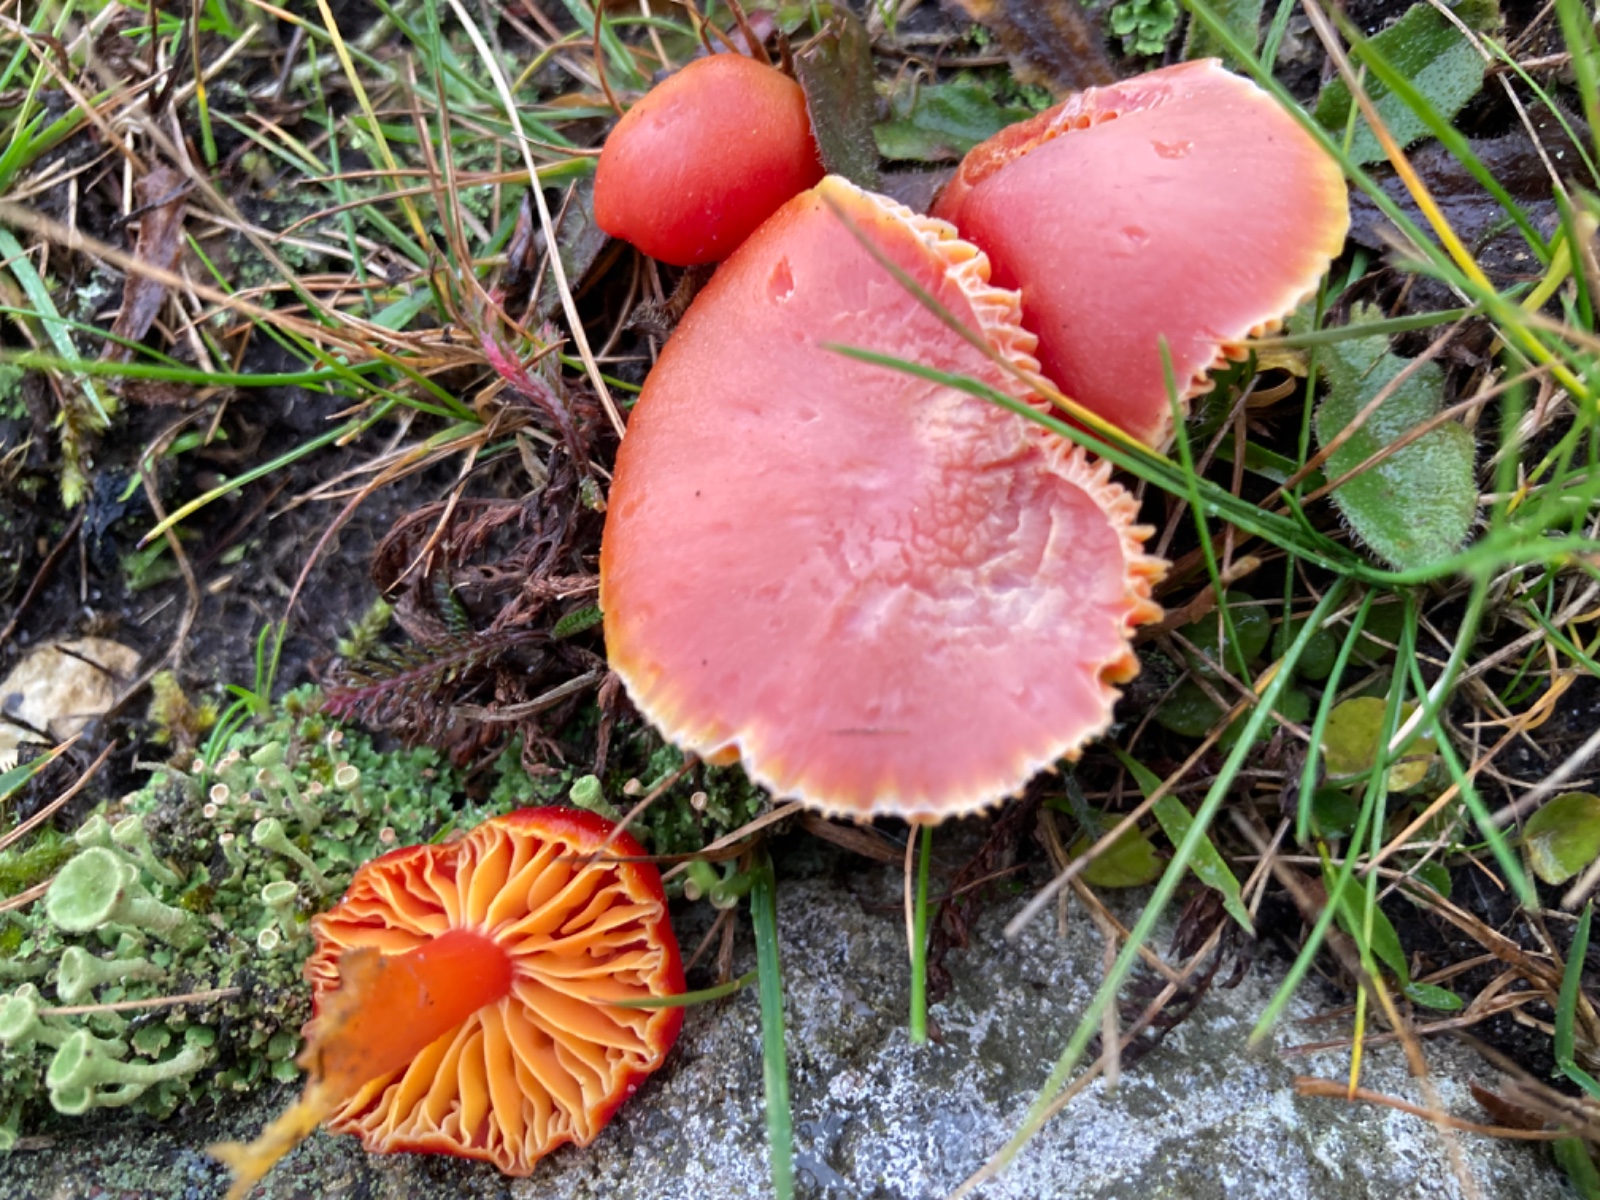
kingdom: Fungi
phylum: Basidiomycota
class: Agaricomycetes
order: Agaricales
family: Hygrophoraceae
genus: Hygrocybe
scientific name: Hygrocybe coccinea
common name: cinnober-vokshat
